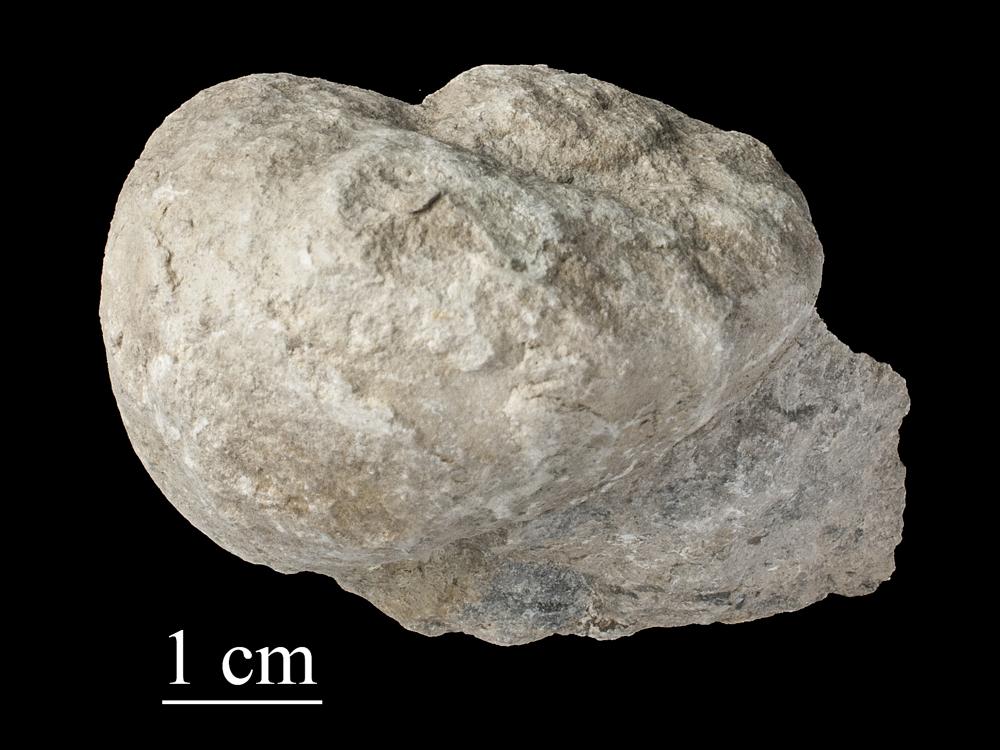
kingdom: Animalia
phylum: Mollusca
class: Gastropoda
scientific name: Gastropoda
